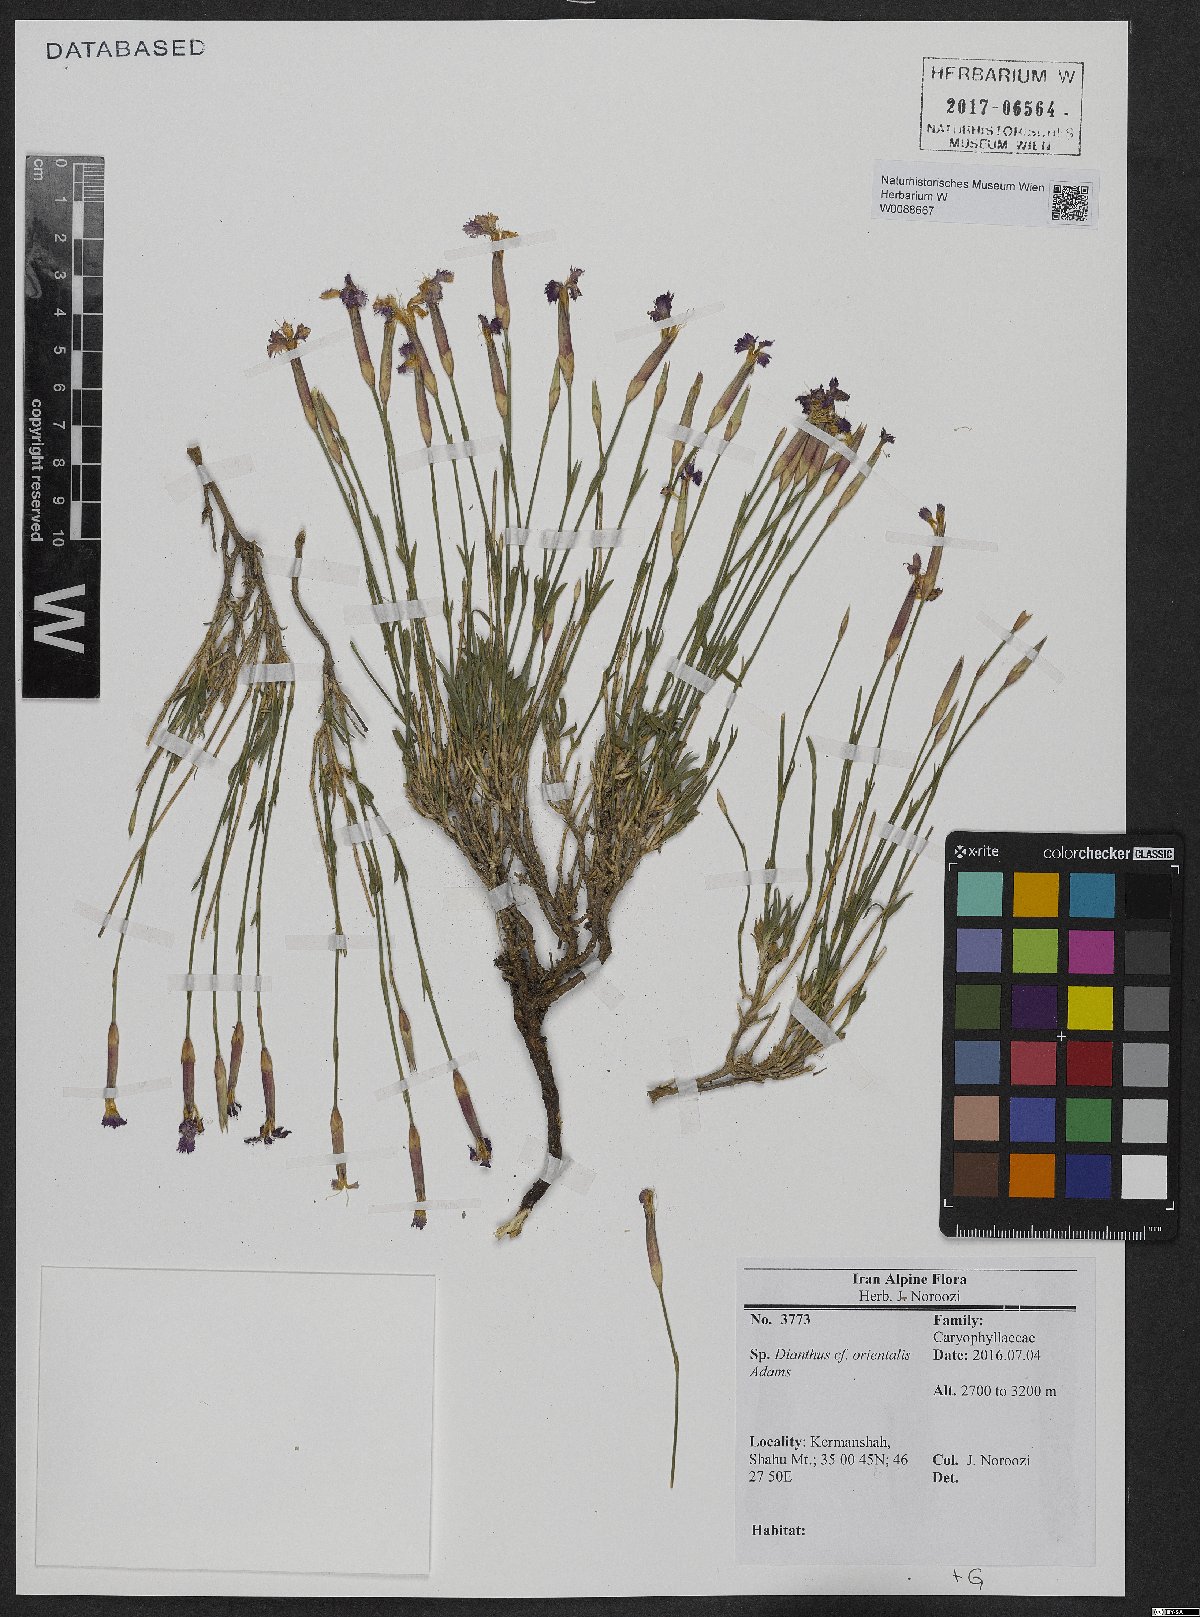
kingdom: Plantae
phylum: Tracheophyta
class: Magnoliopsida
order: Caryophyllales
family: Caryophyllaceae
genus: Dianthus
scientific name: Dianthus orientalis
